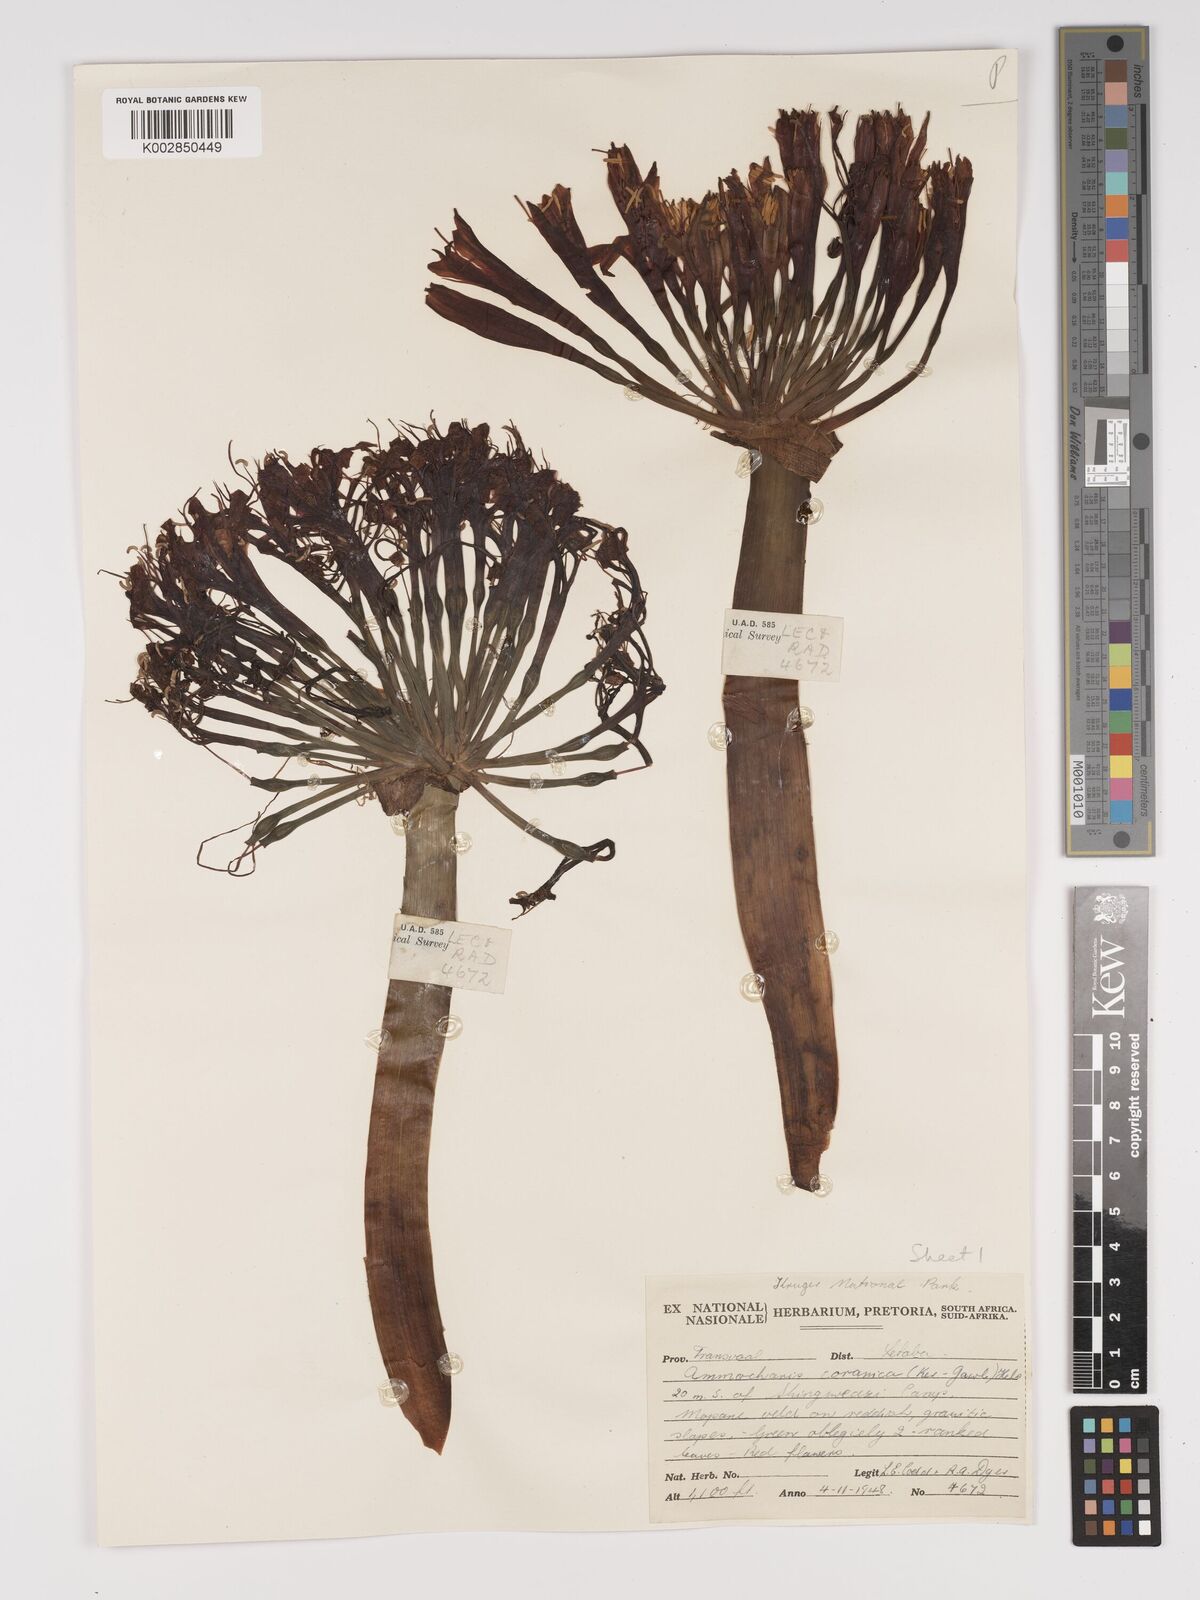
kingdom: Plantae
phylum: Tracheophyta
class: Liliopsida
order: Asparagales
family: Amaryllidaceae
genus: Ammocharis
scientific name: Ammocharis coranica
